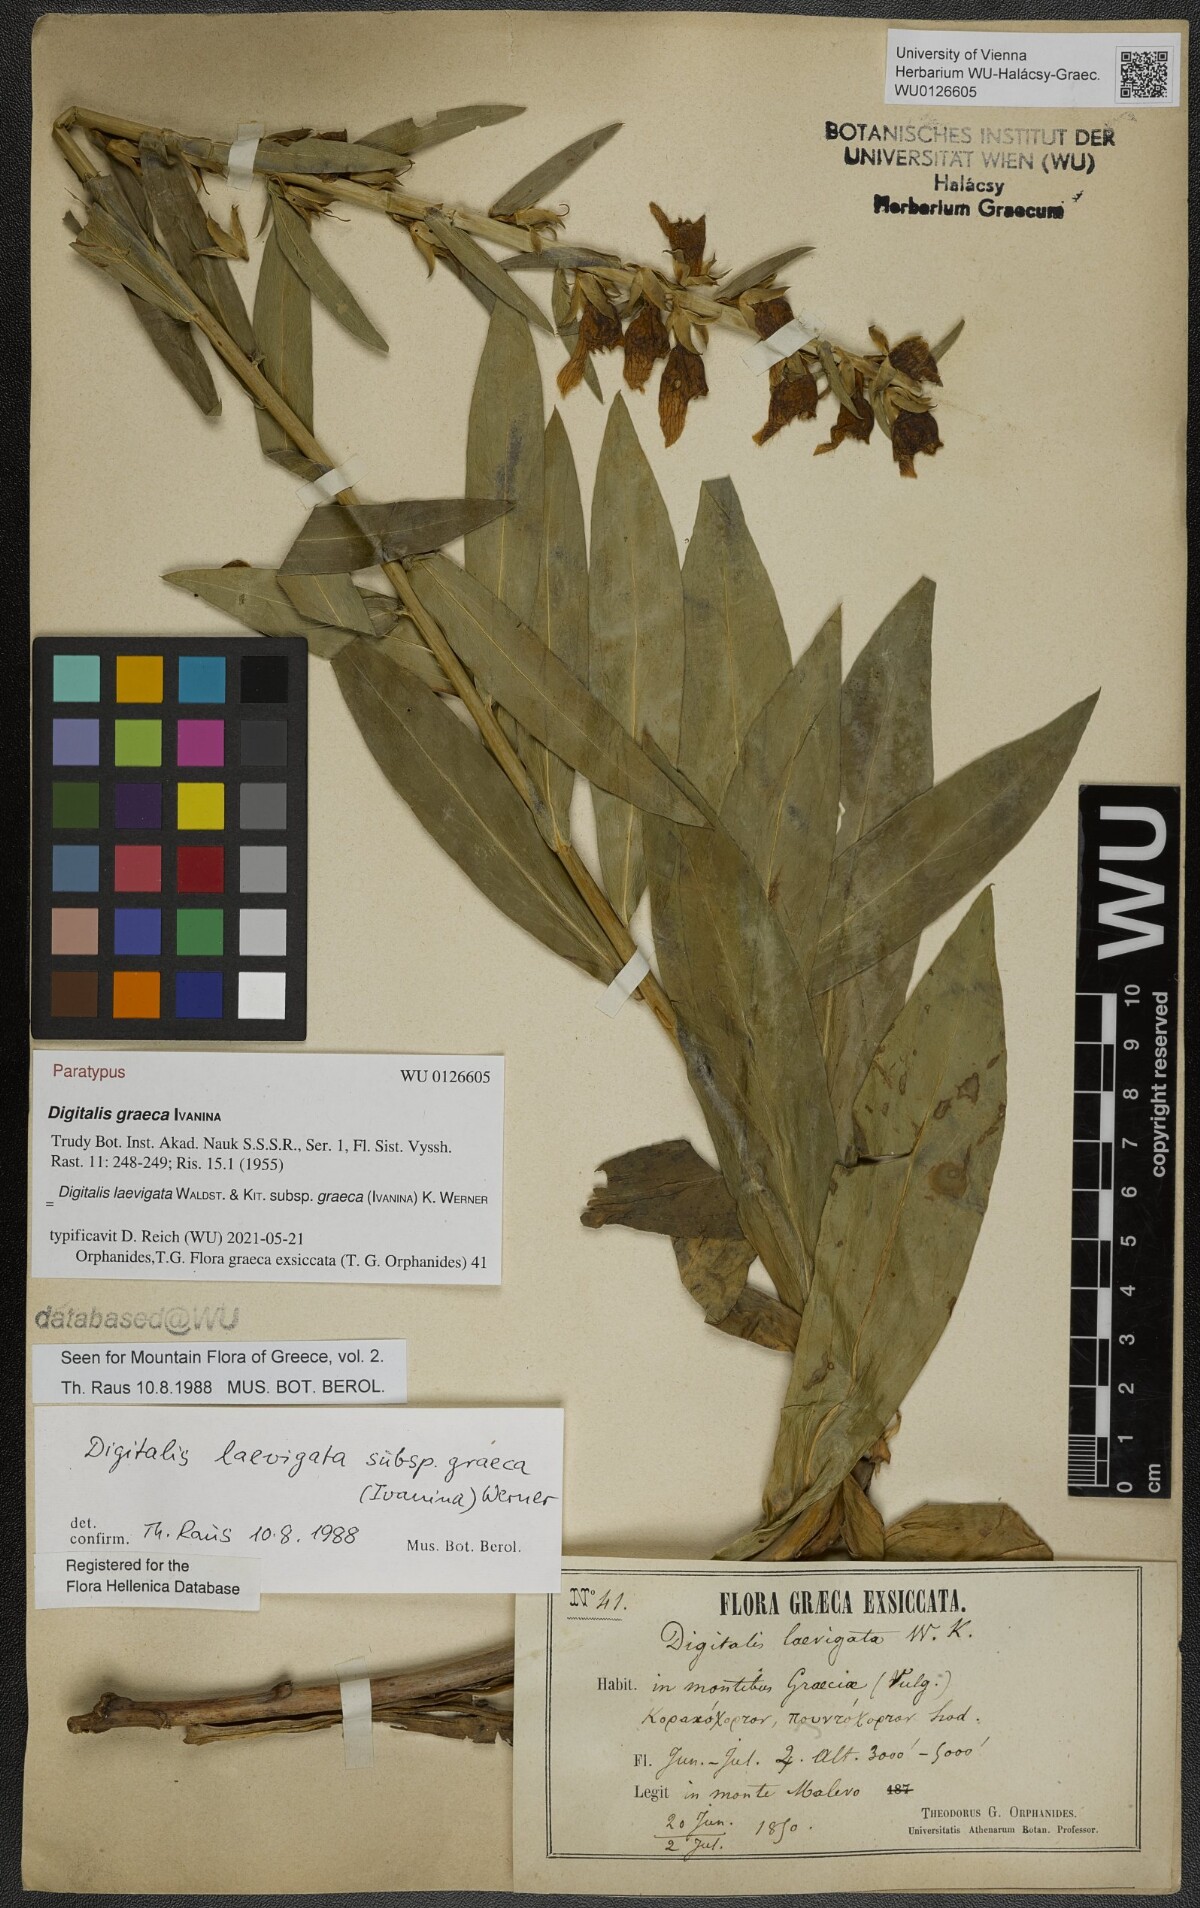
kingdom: Plantae
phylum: Tracheophyta
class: Magnoliopsida
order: Lamiales
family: Plantaginaceae
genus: Digitalis
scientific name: Digitalis laevigata
